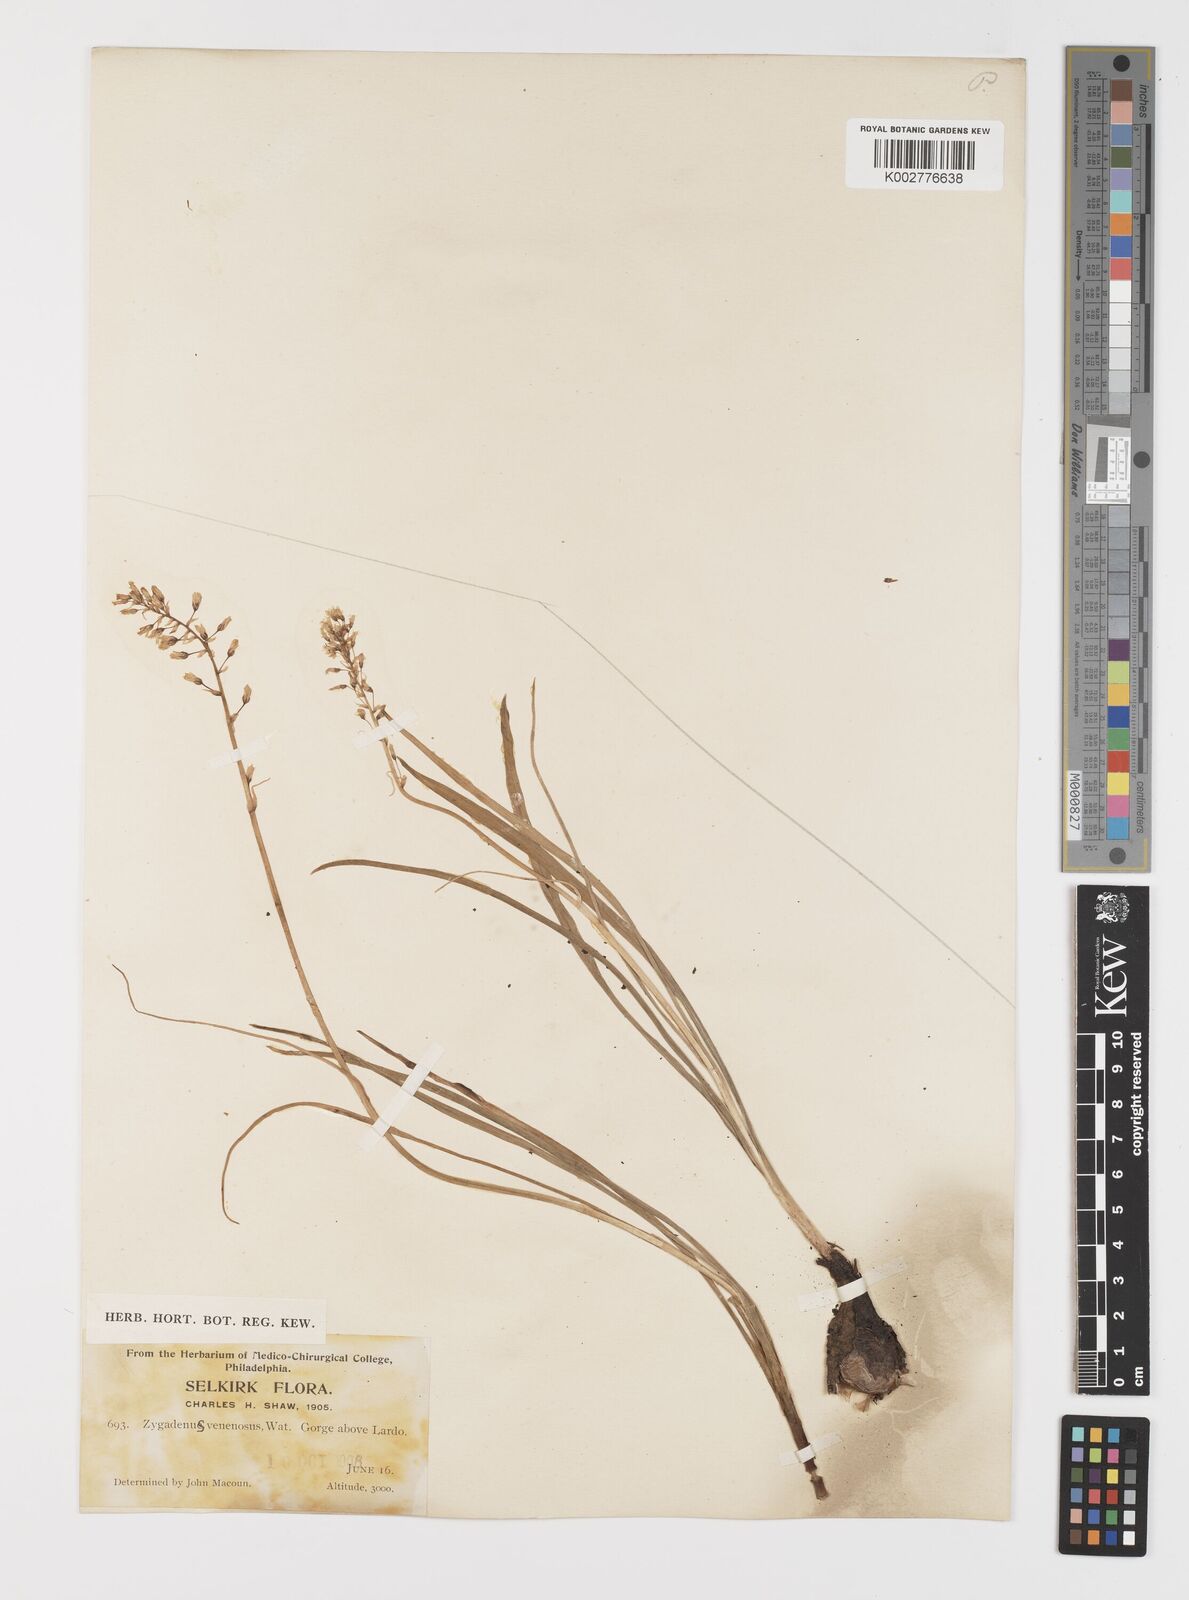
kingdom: Plantae
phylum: Tracheophyta
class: Liliopsida
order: Liliales
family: Melanthiaceae
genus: Toxicoscordion
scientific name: Toxicoscordion venenosum
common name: Meadow death camas
